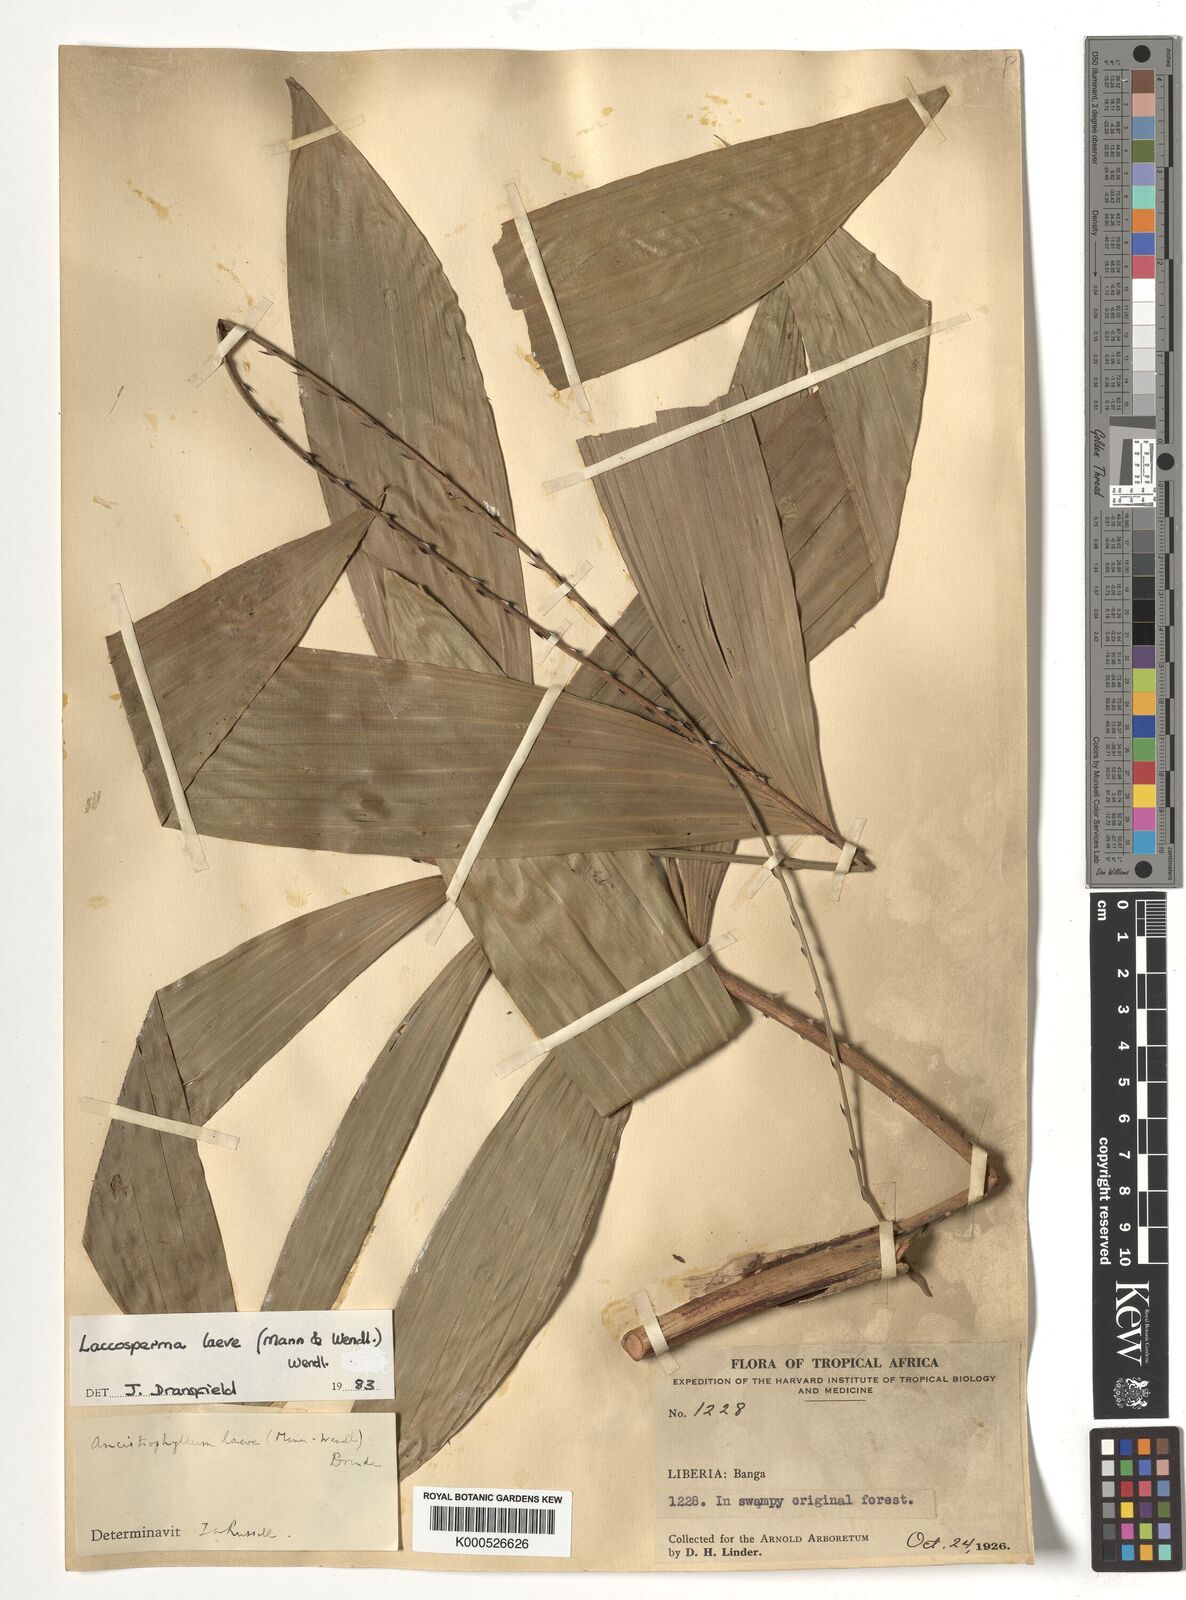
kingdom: Plantae
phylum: Tracheophyta
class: Liliopsida
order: Arecales
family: Arecaceae
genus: Laccosperma
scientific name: Laccosperma
